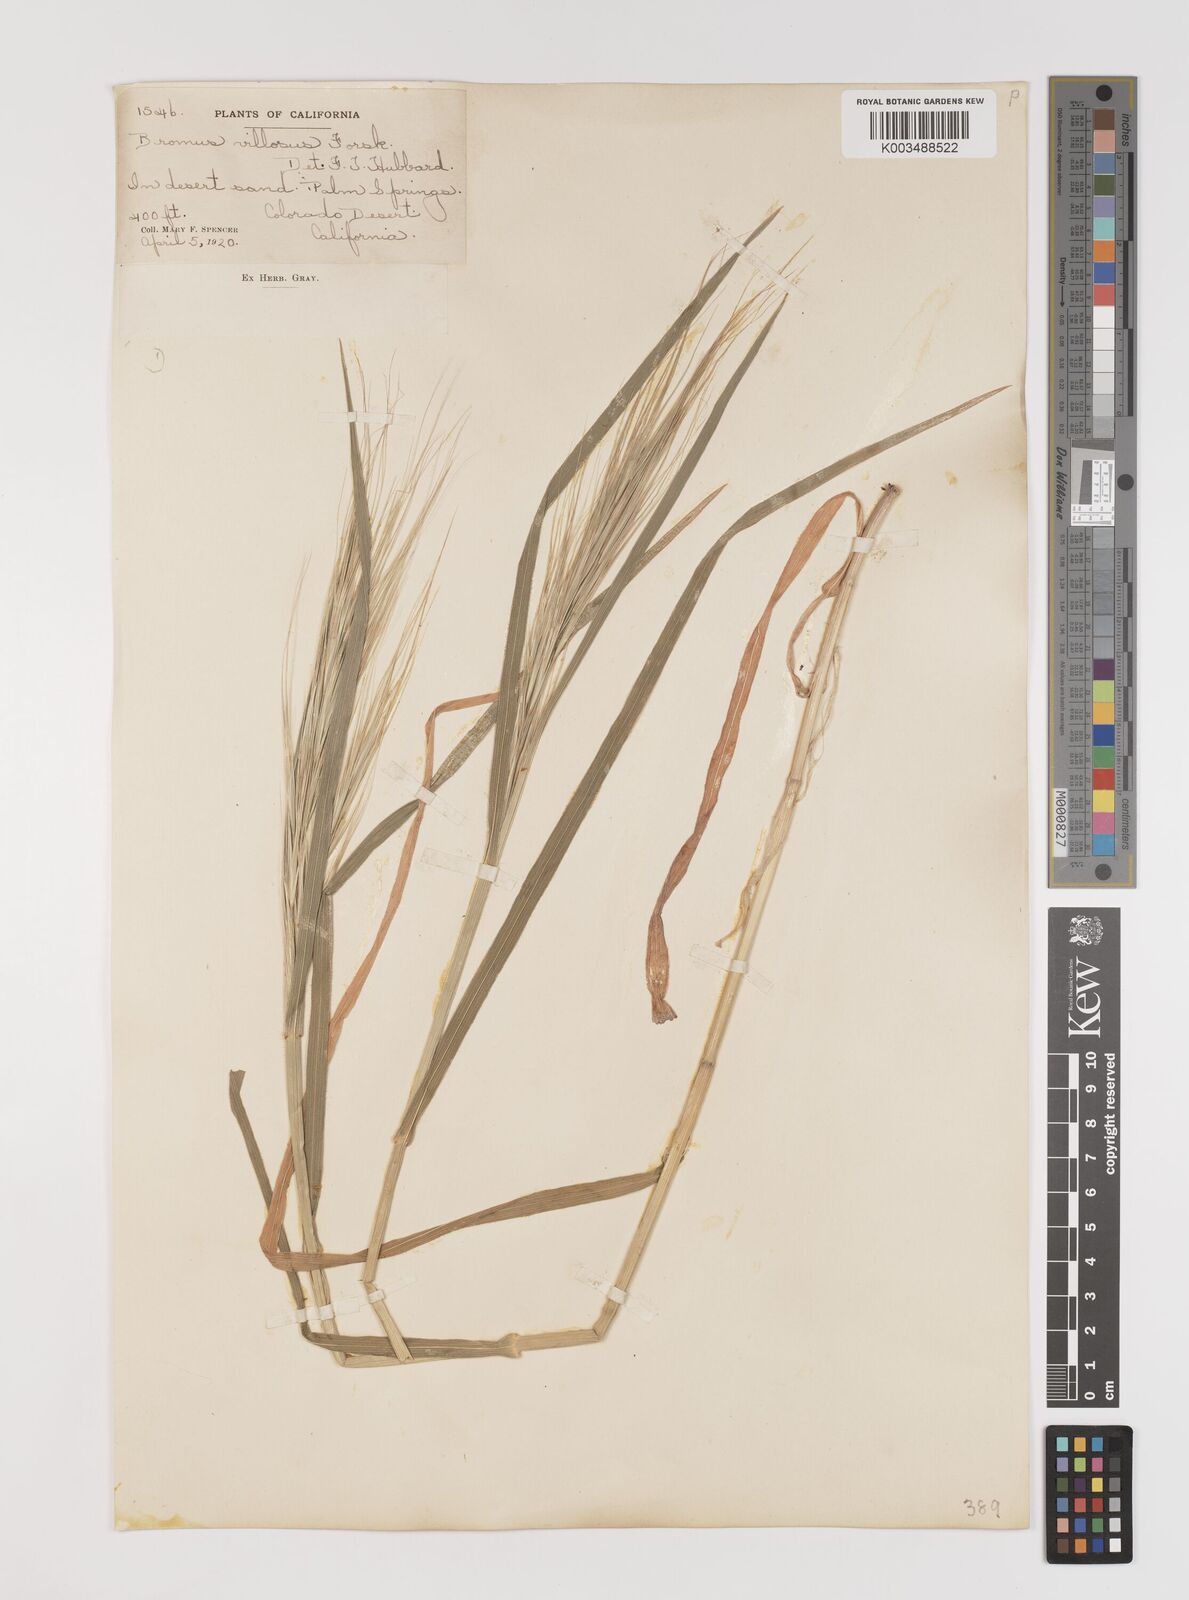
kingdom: Plantae
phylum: Tracheophyta
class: Liliopsida
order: Poales
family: Poaceae
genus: Bromus
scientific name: Bromus diandrus
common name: Ripgut brome
